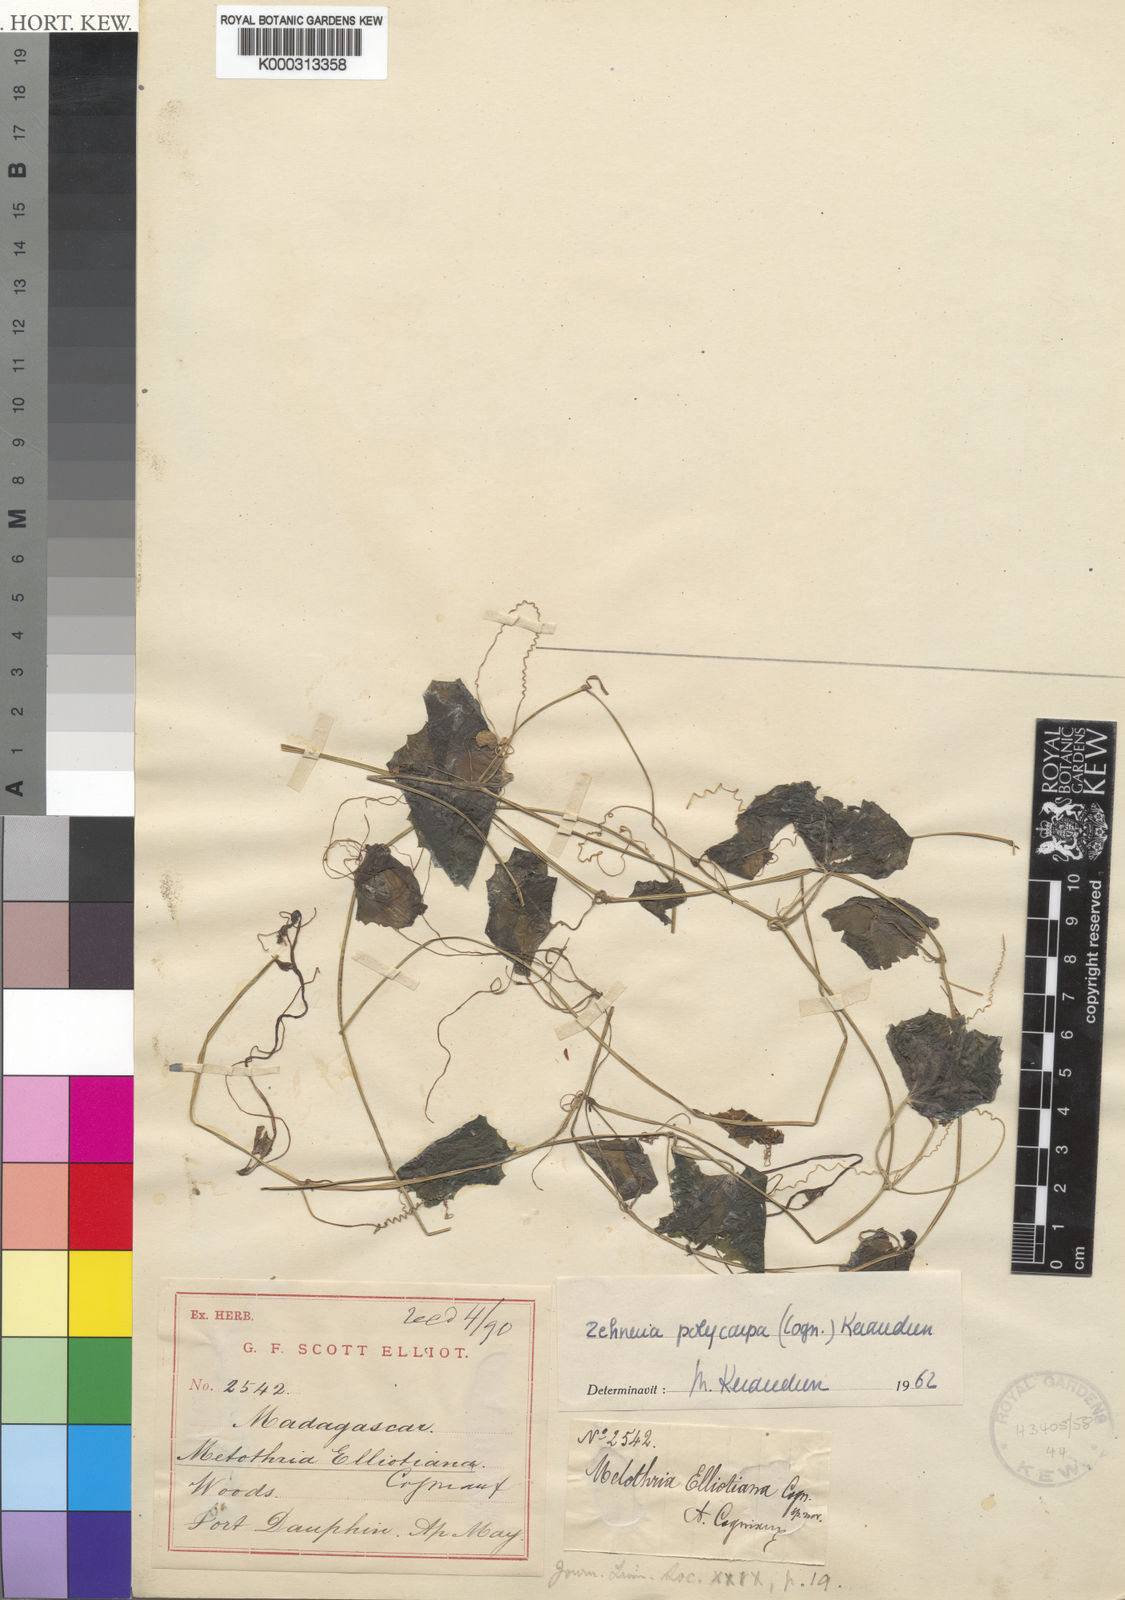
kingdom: Plantae
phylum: Tracheophyta
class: Magnoliopsida
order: Cucurbitales
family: Cucurbitaceae
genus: Zehneria
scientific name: Zehneria polycarpa
